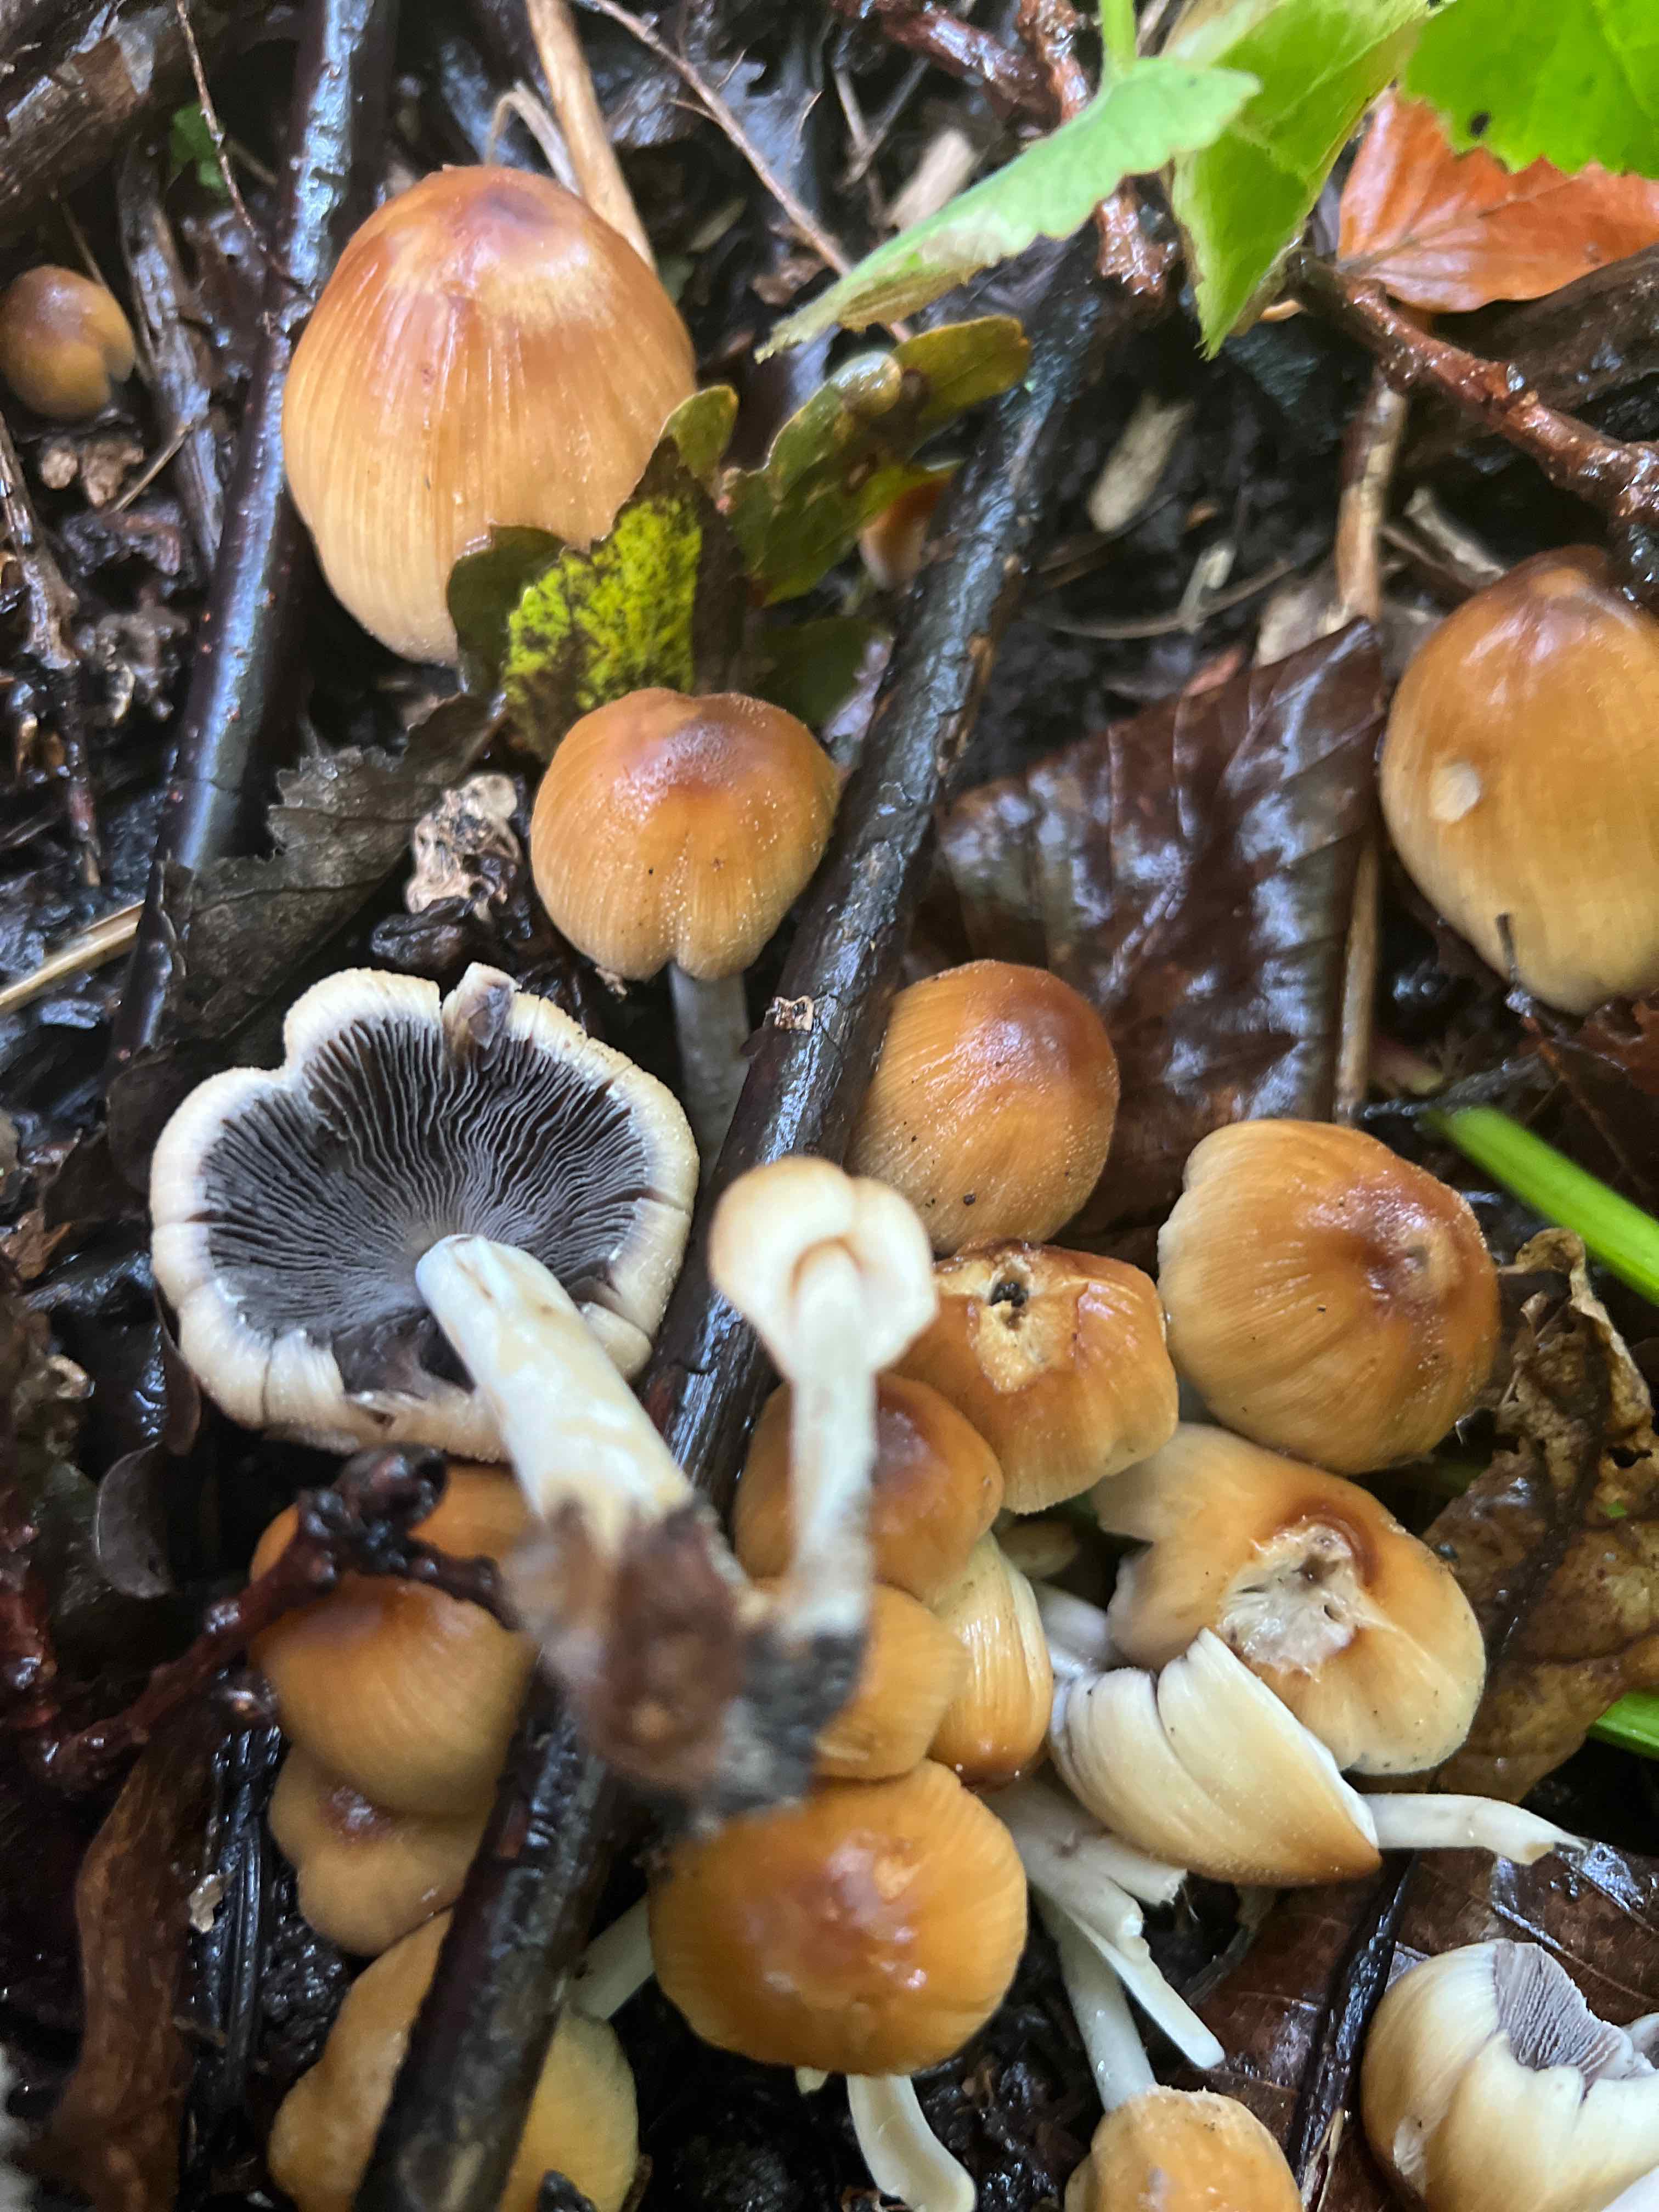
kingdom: Fungi
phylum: Basidiomycota
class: Agaricomycetes
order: Agaricales
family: Psathyrellaceae
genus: Coprinellus
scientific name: Coprinellus micaceus
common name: glimmer-blækhat
